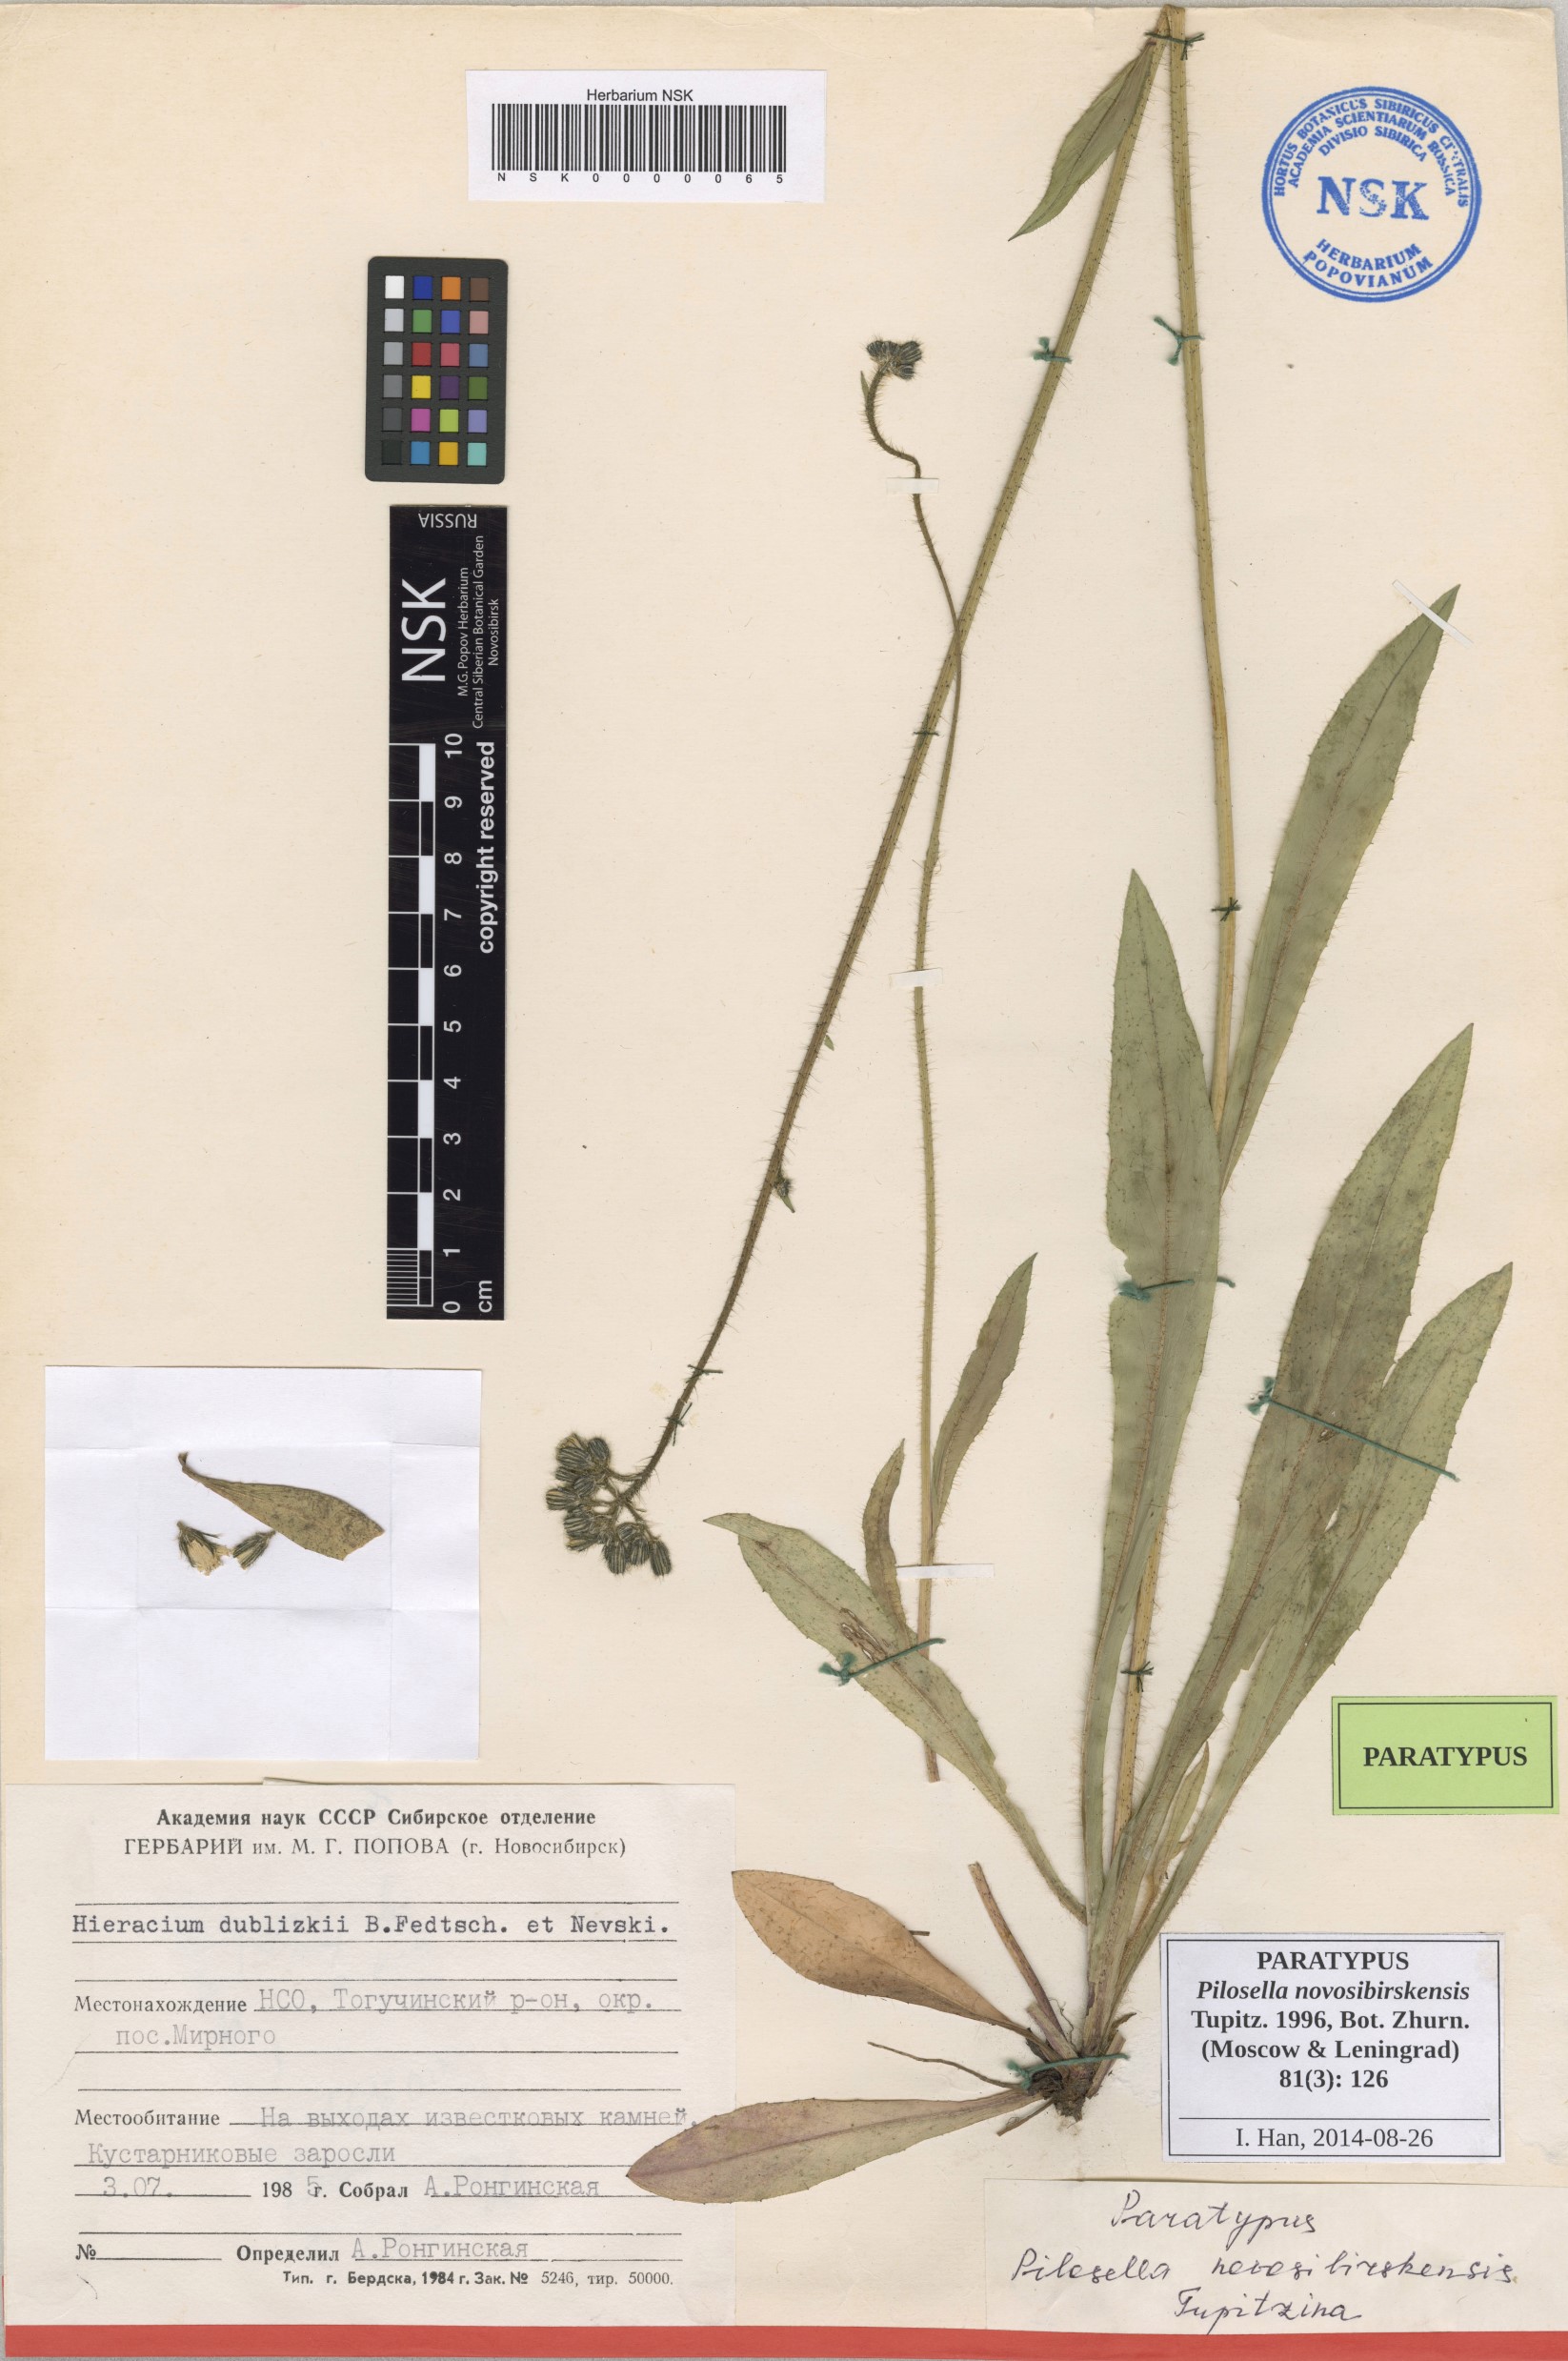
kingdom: Plantae
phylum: Tracheophyta
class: Magnoliopsida
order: Asterales
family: Asteraceae
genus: Pilosella
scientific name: Pilosella novosibirskensis
